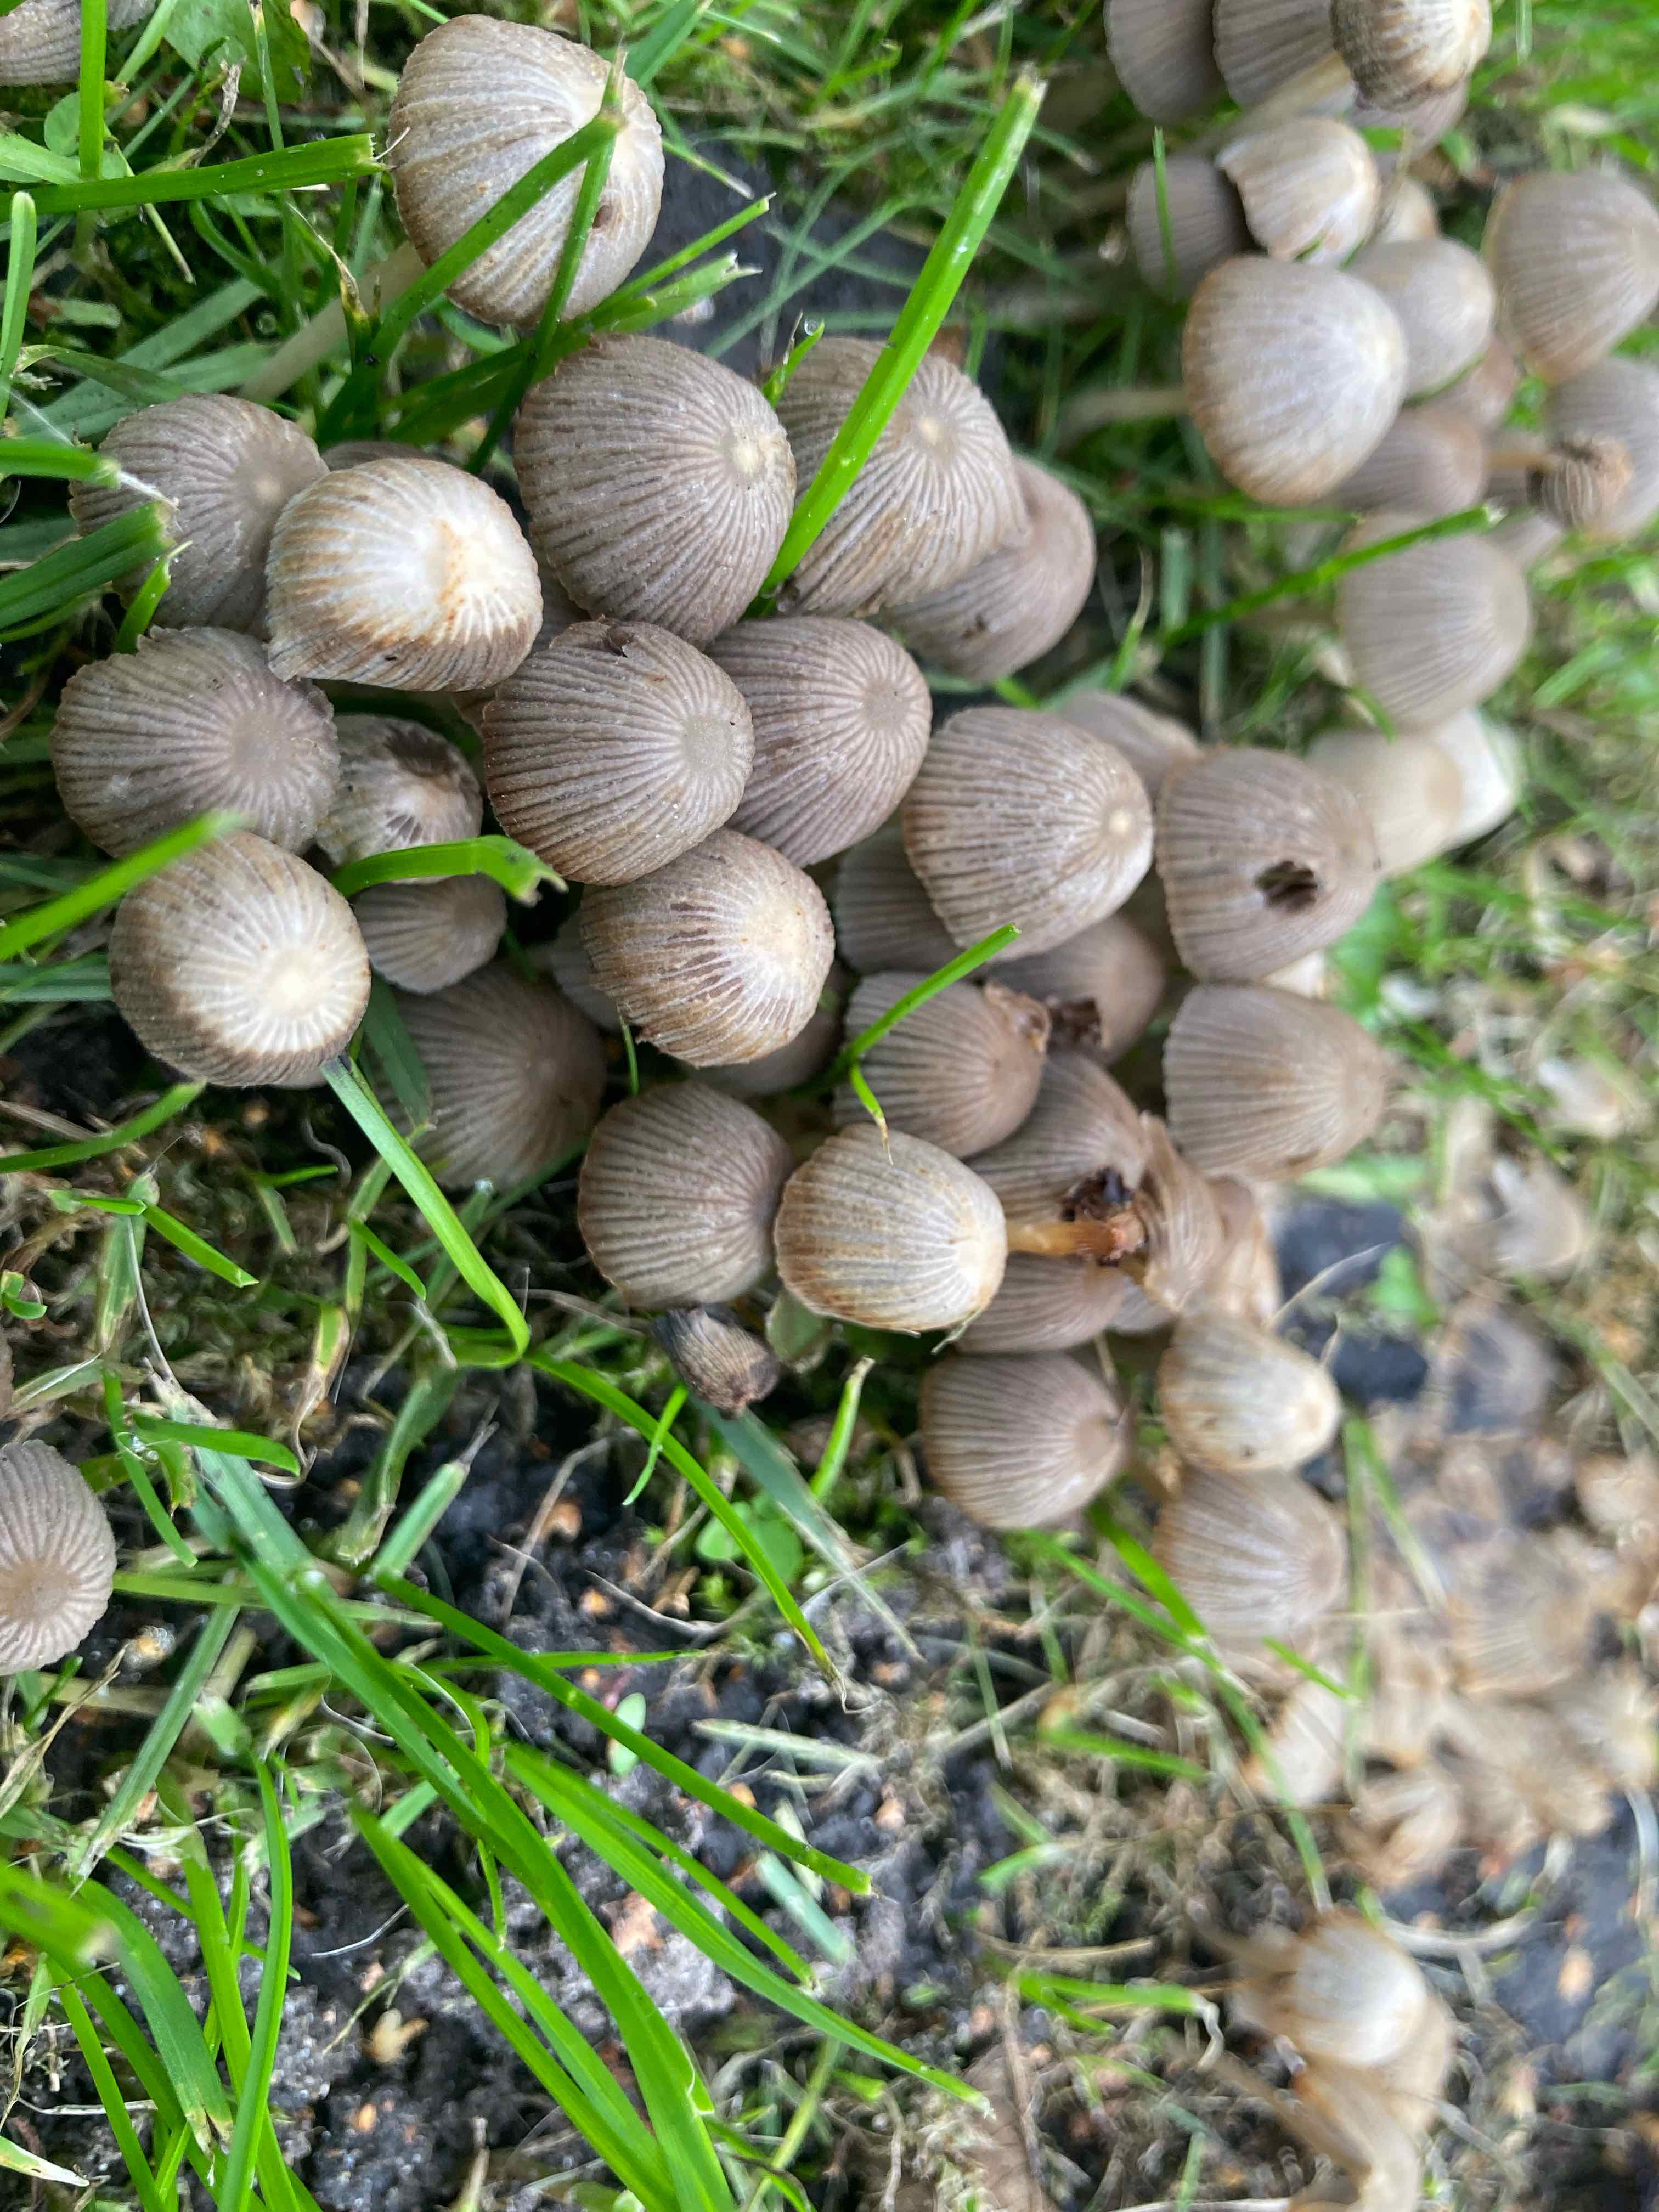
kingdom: Fungi
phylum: Basidiomycota
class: Agaricomycetes
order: Agaricales
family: Psathyrellaceae
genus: Coprinellus
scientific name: Coprinellus disseminatus
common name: bredsået blækhat
